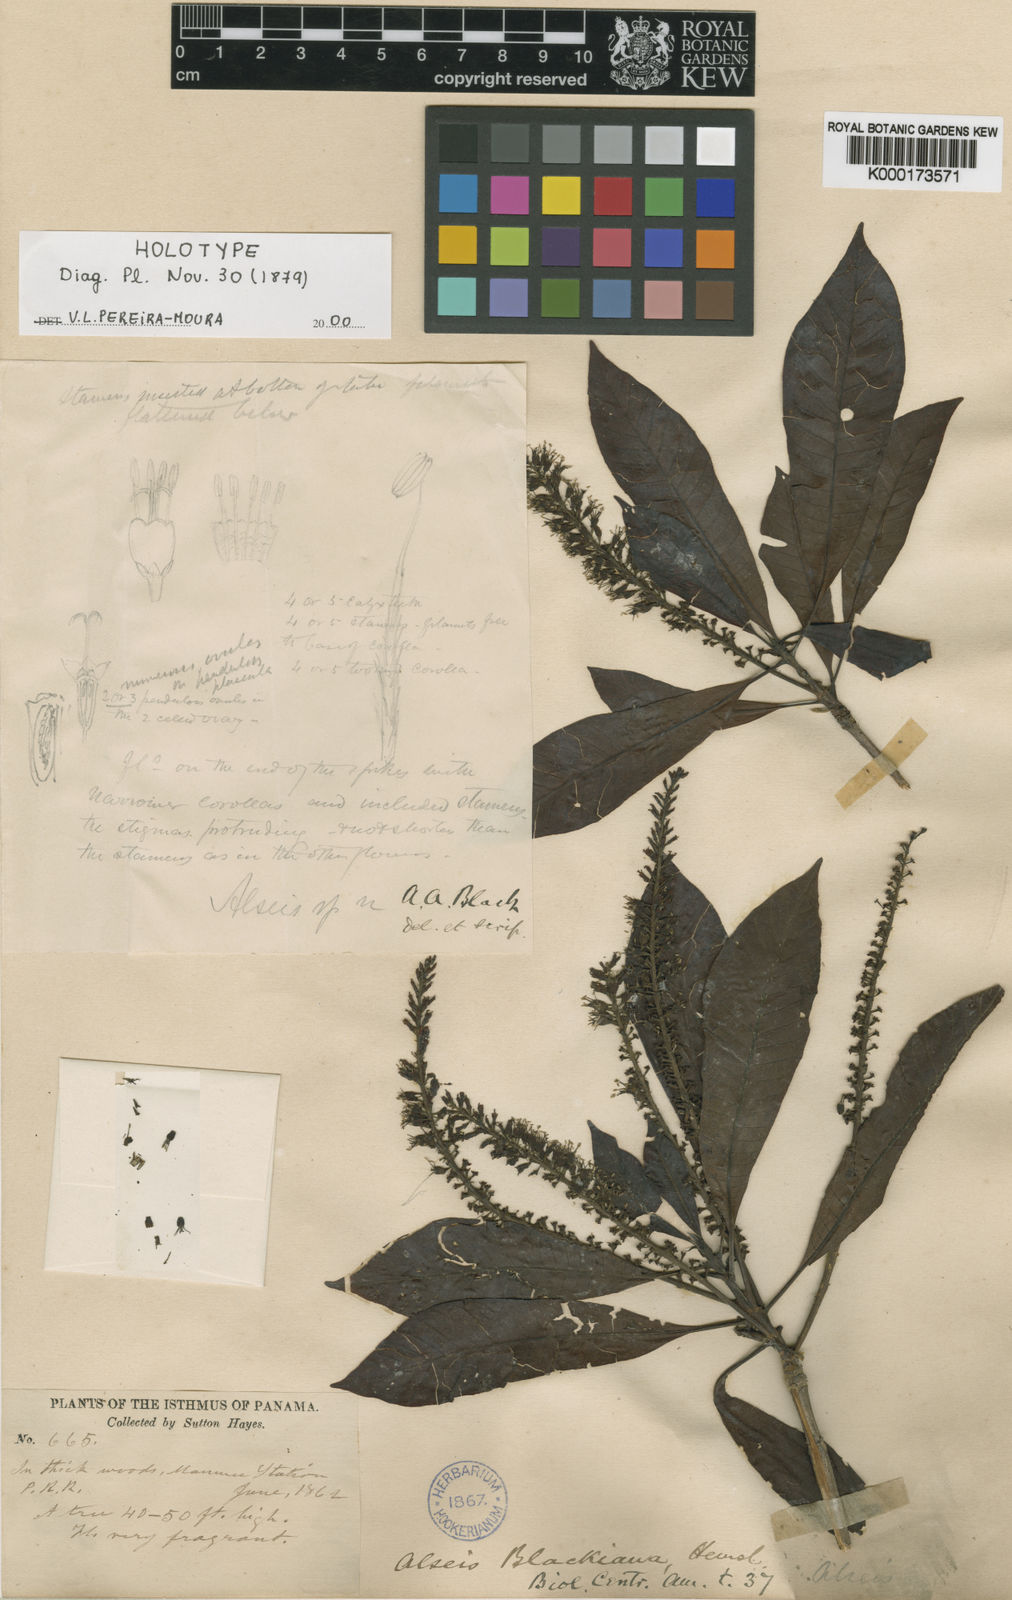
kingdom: Plantae
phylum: Tracheophyta
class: Magnoliopsida
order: Gentianales
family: Rubiaceae
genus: Alseis
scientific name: Alseis blackiana
